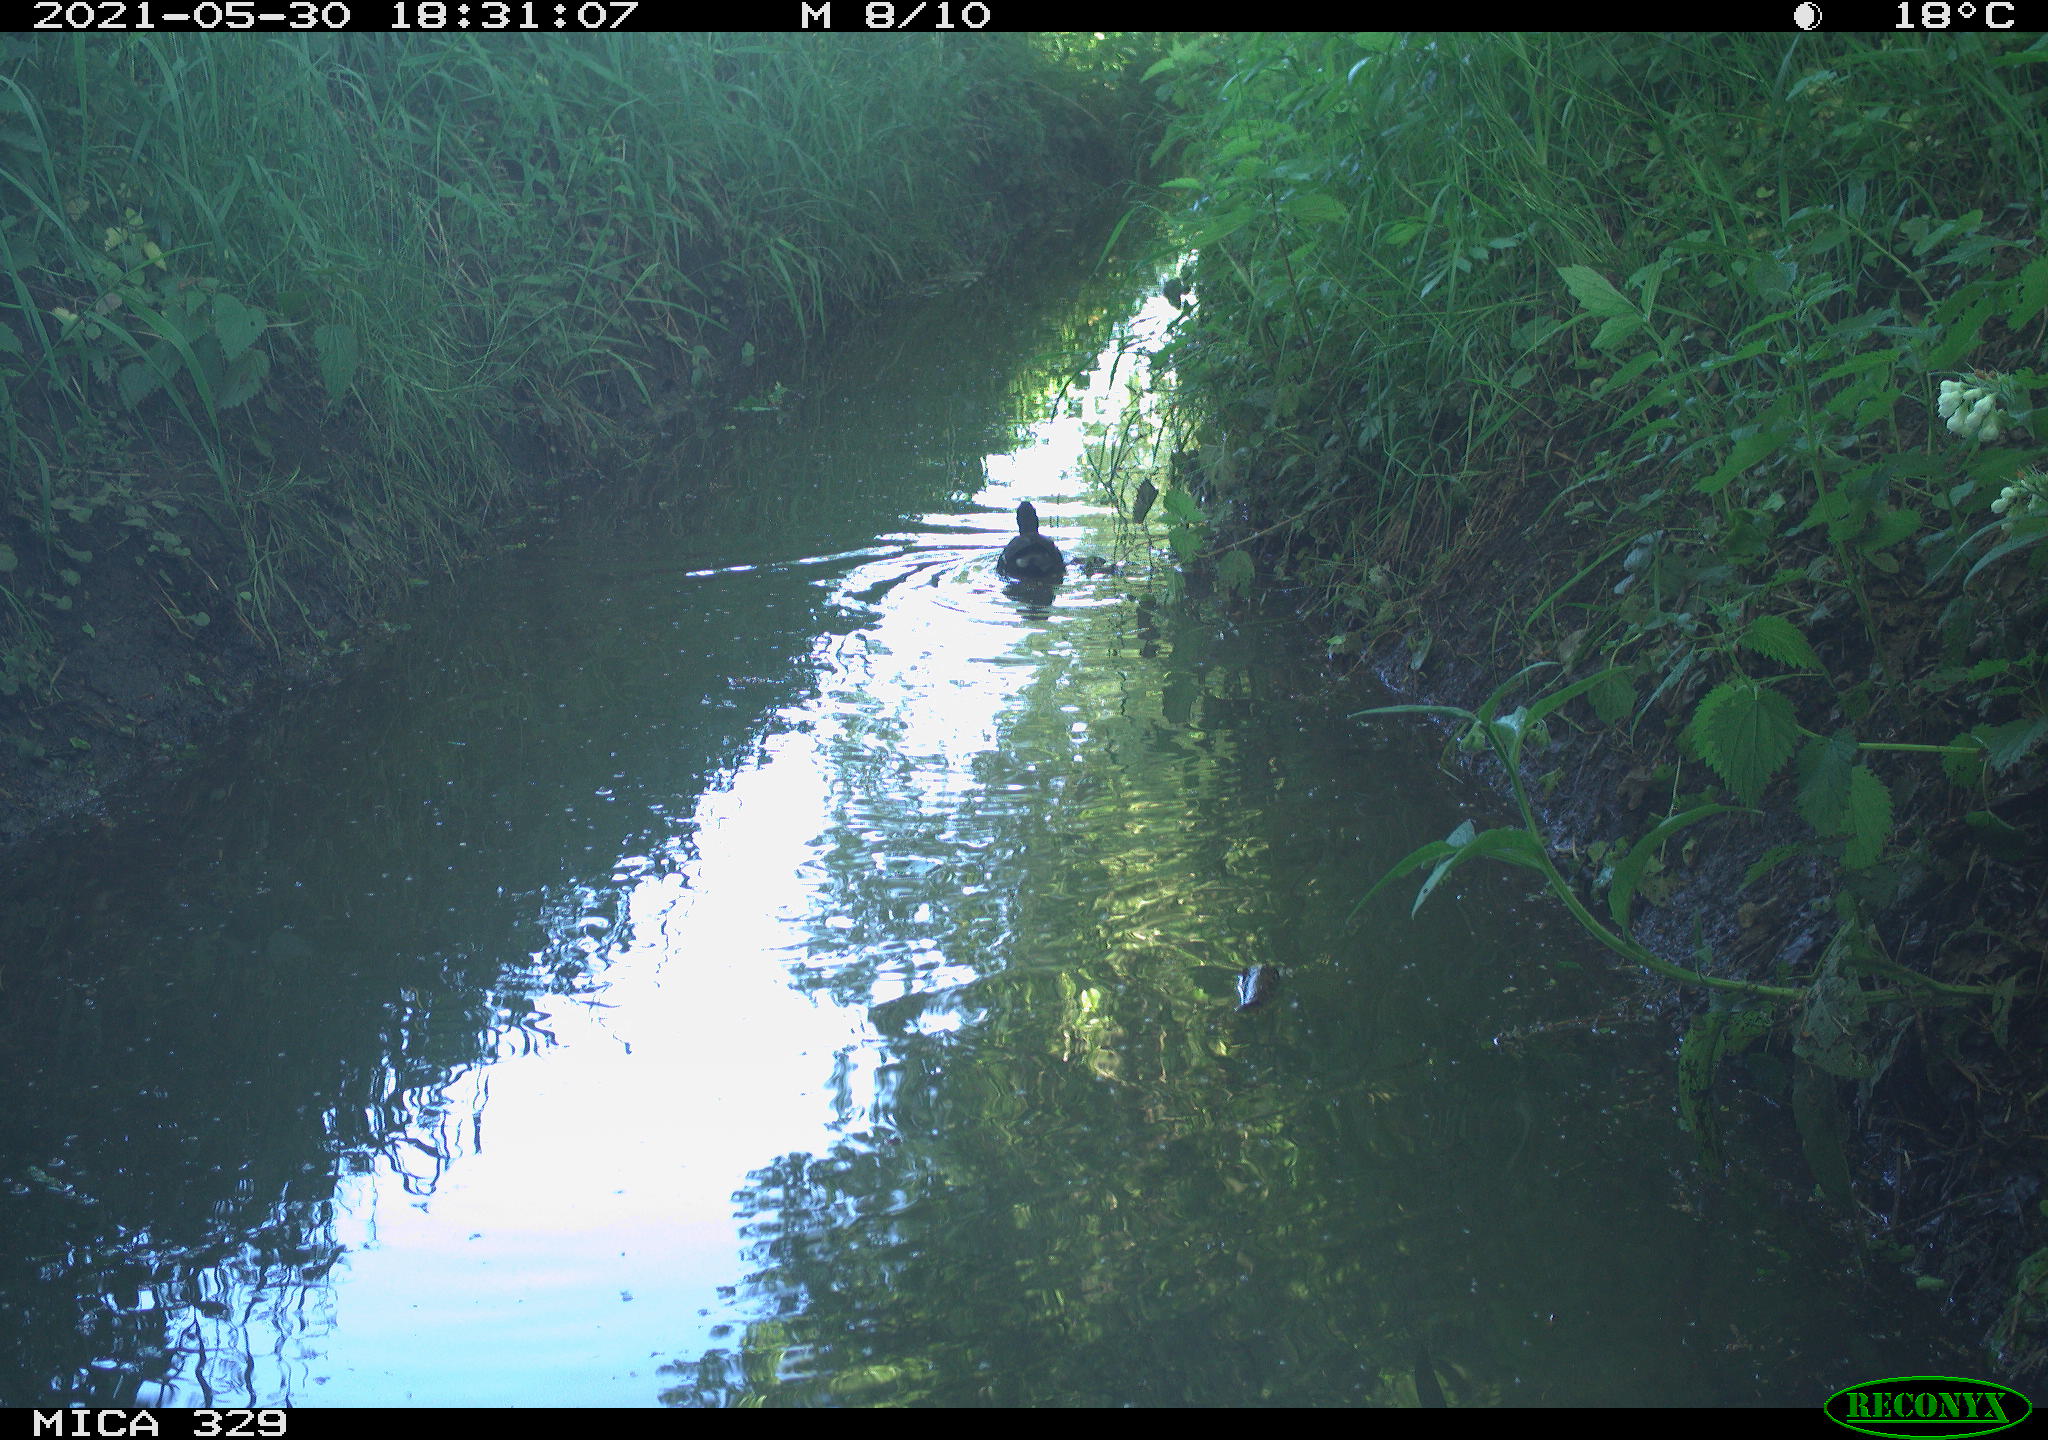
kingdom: Animalia
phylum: Chordata
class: Aves
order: Gruiformes
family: Rallidae
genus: Gallinula
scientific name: Gallinula chloropus
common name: Common moorhen
